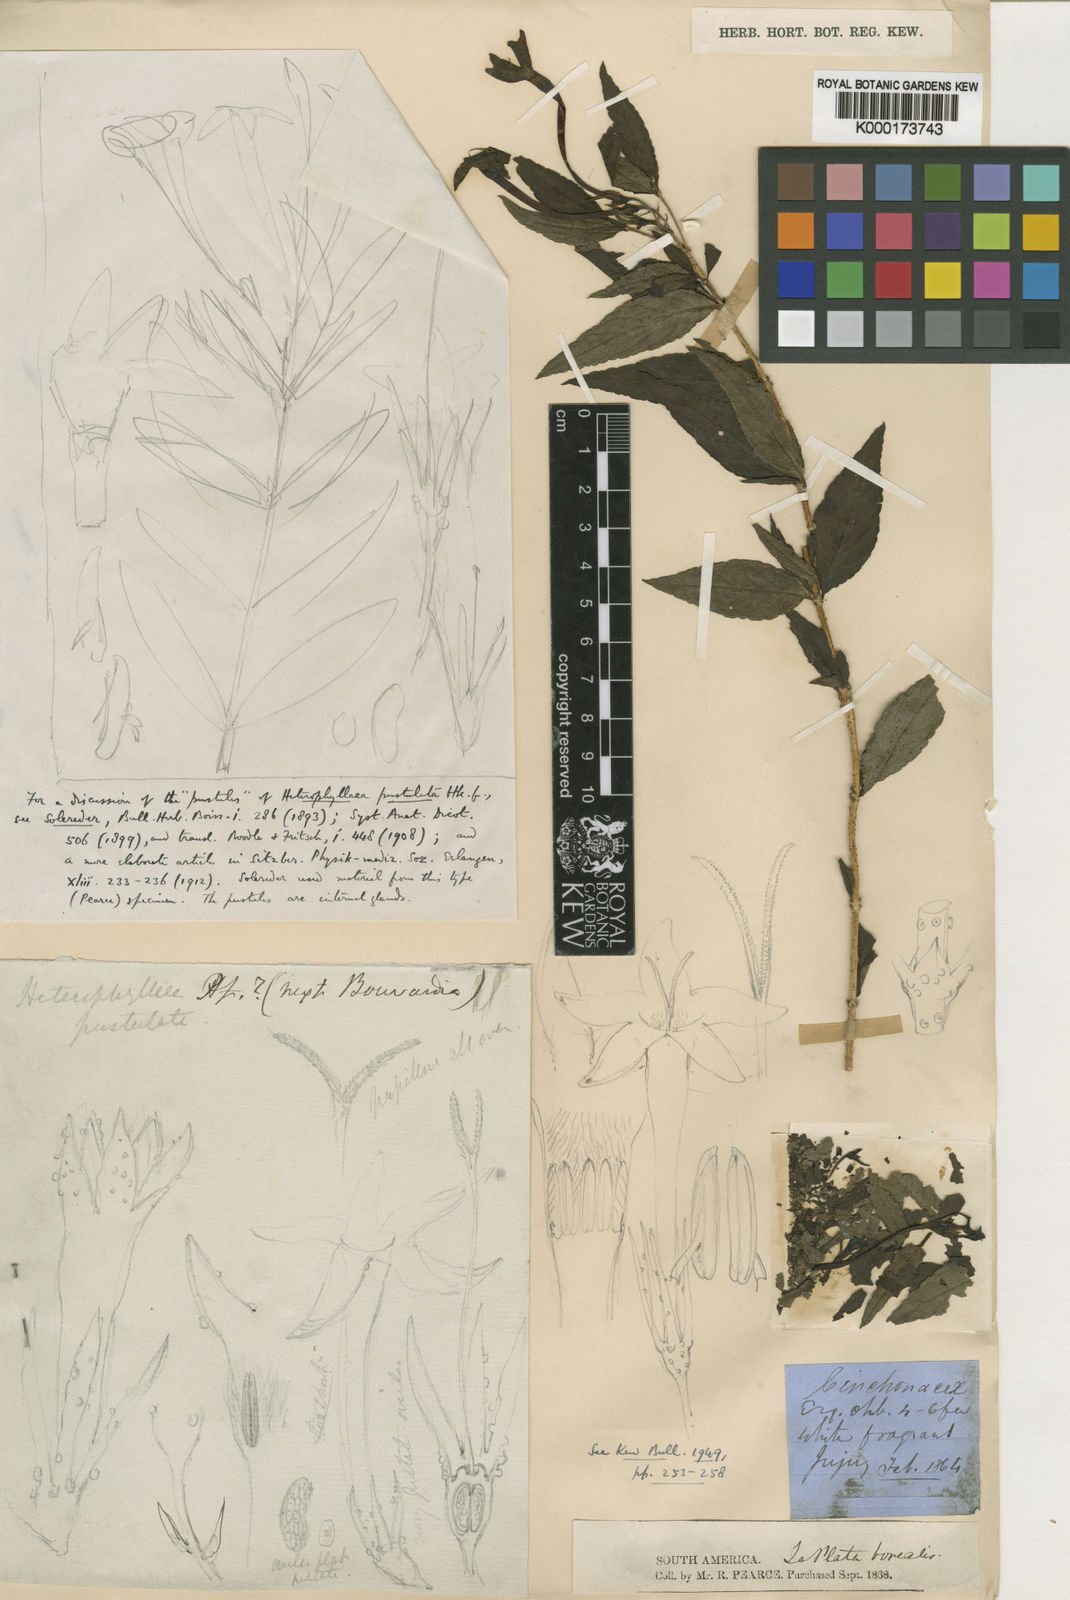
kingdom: Plantae
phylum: Tracheophyta
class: Magnoliopsida
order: Gentianales
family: Rubiaceae
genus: Heterophyllaea
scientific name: Heterophyllaea pustulata
